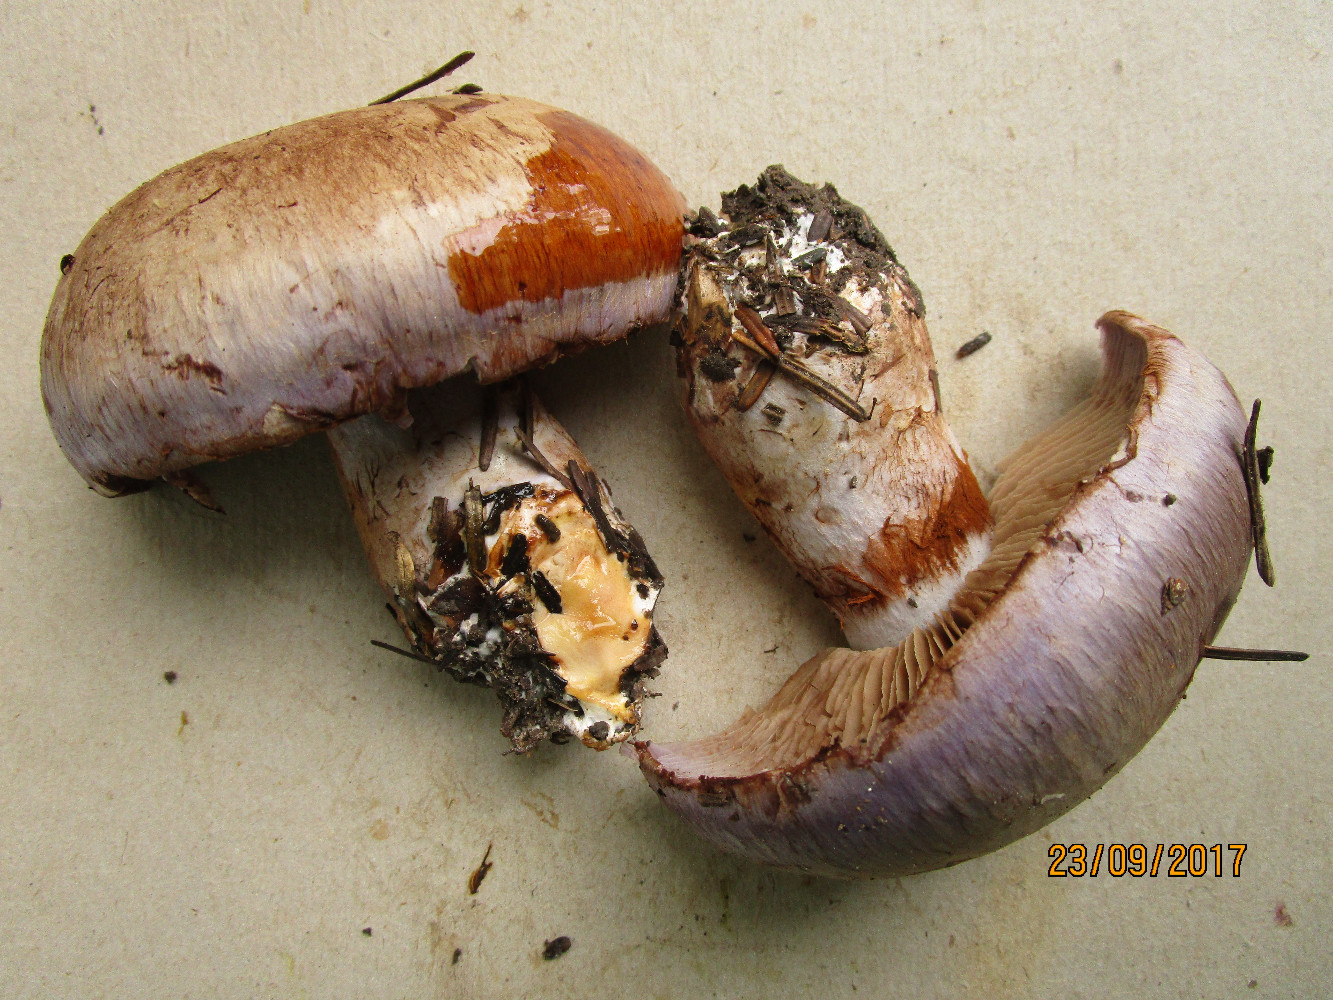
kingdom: Fungi
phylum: Basidiomycota
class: Agaricomycetes
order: Agaricales
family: Cortinariaceae
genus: Cortinarius
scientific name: Cortinarius largus
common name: violetrandet slørhat
